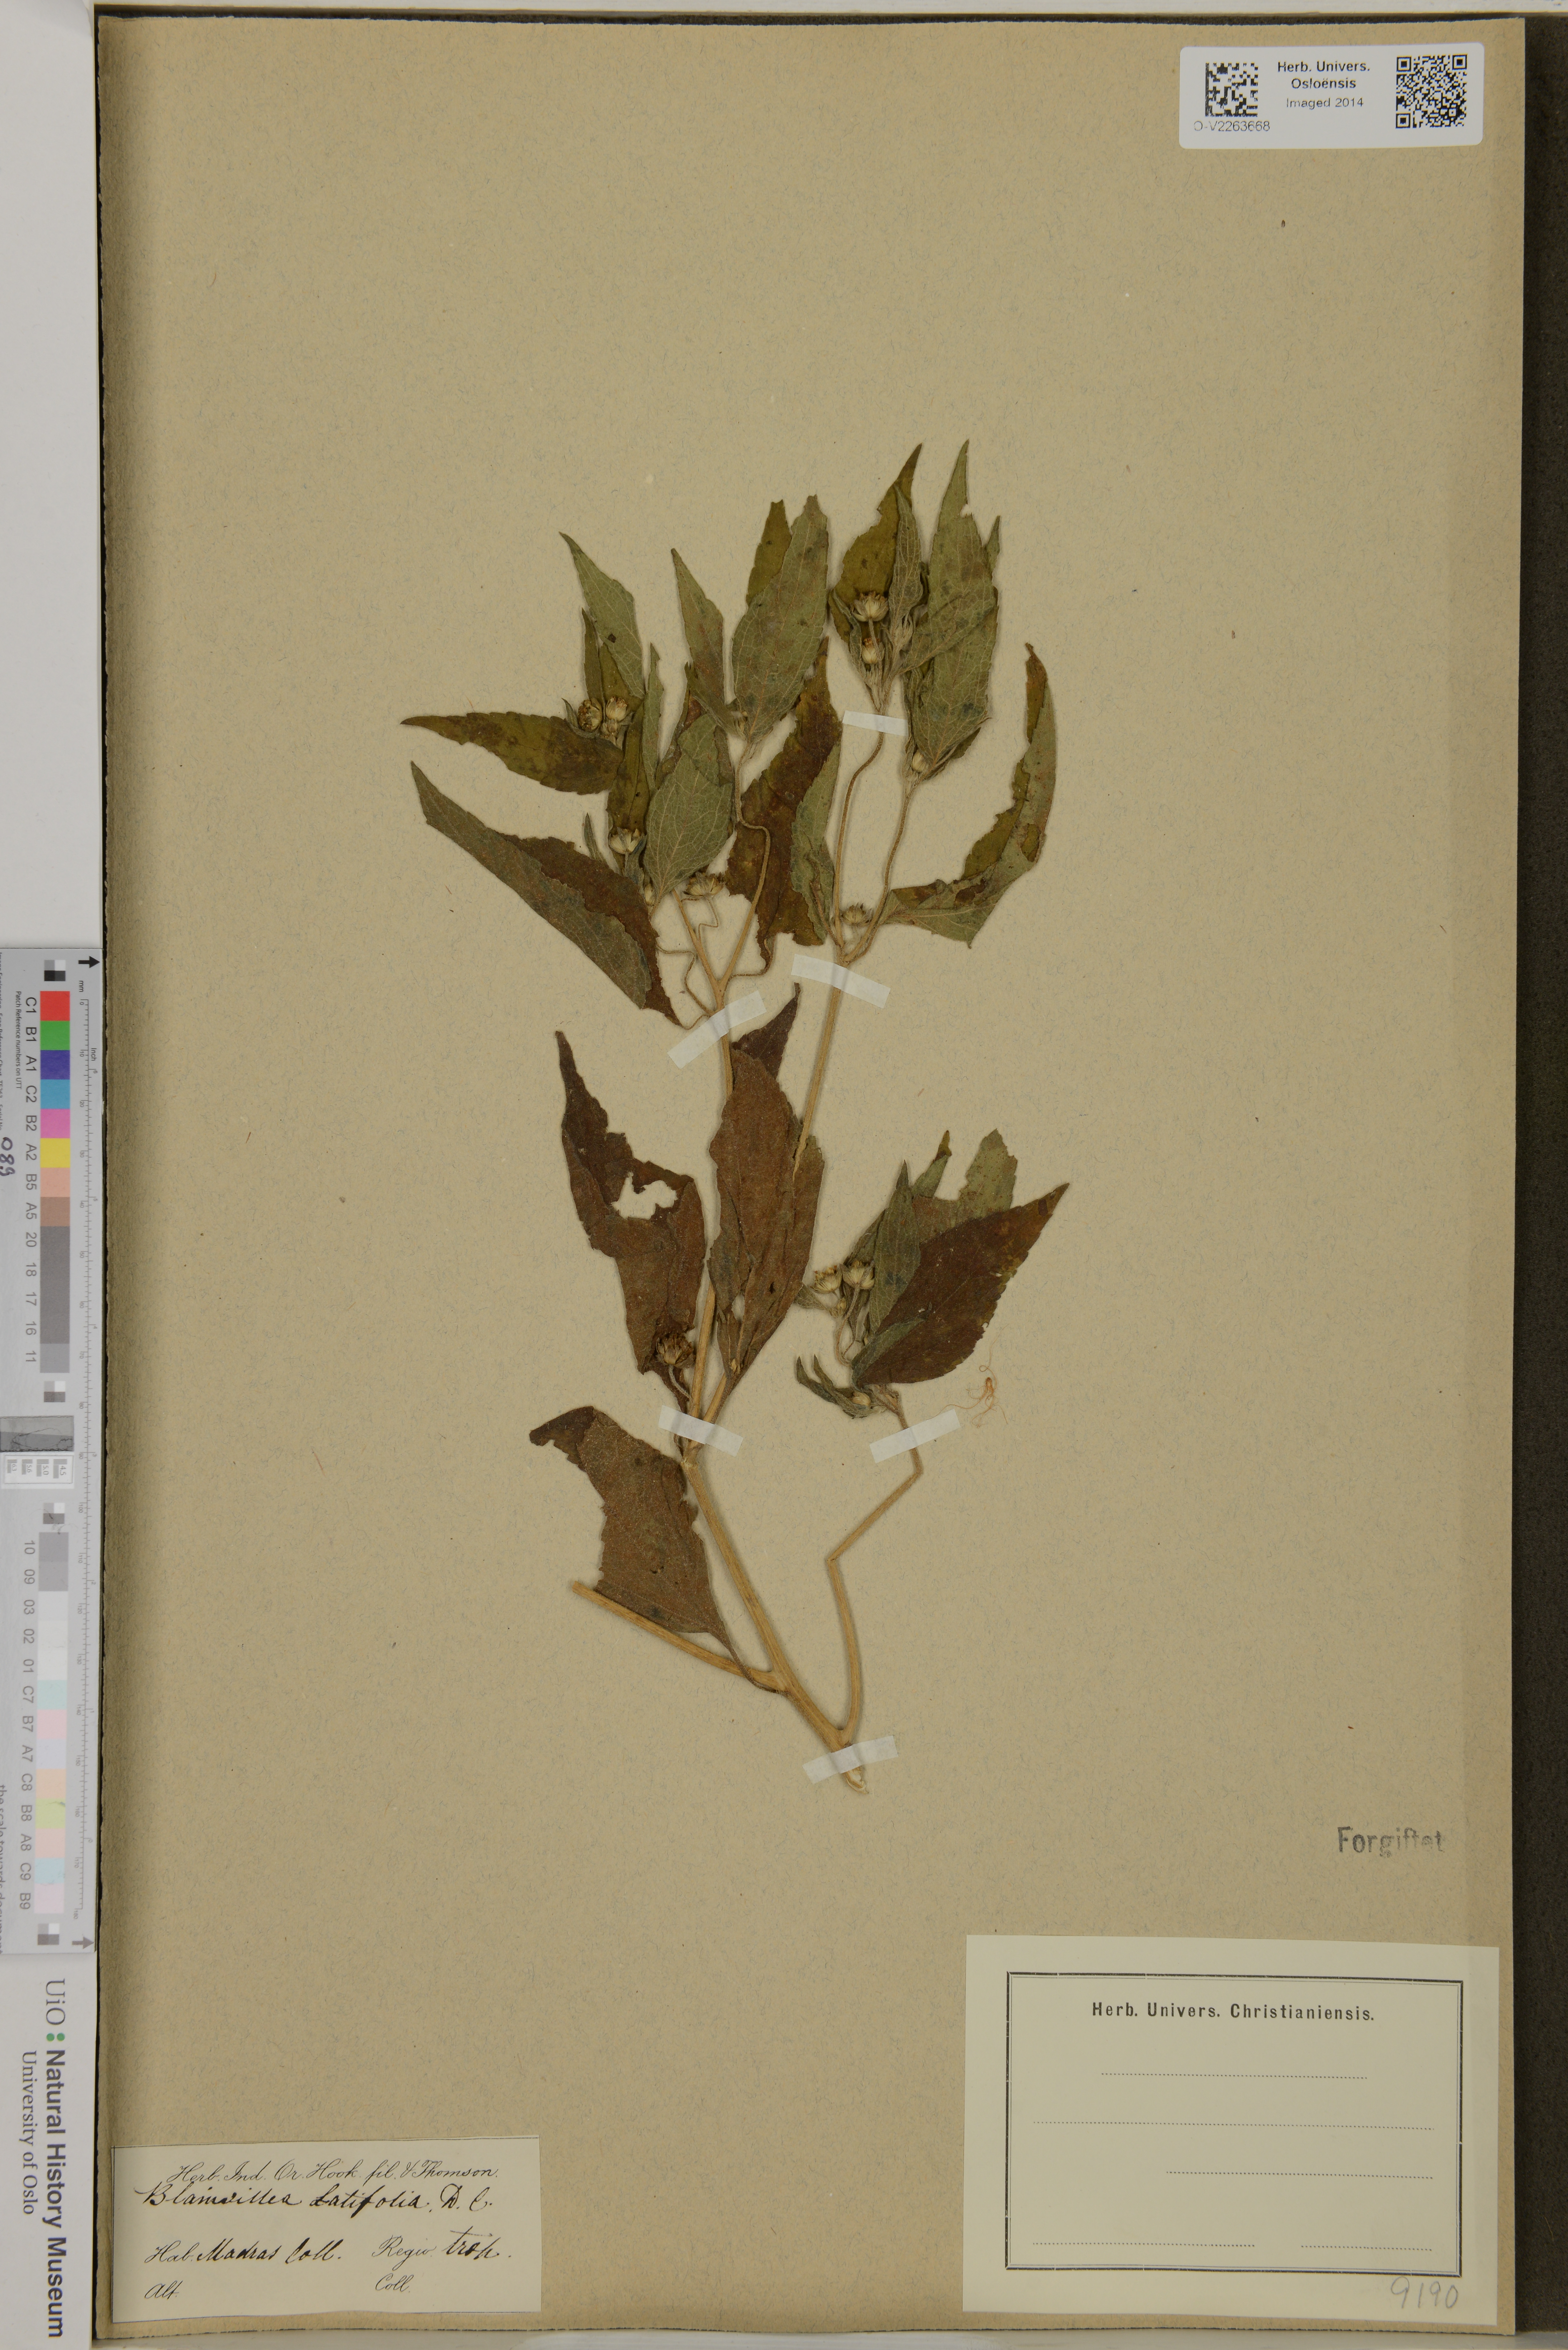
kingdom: Plantae
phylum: Tracheophyta
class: Magnoliopsida
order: Asterales
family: Asteraceae
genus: Blainvillea
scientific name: Blainvillea acmella
